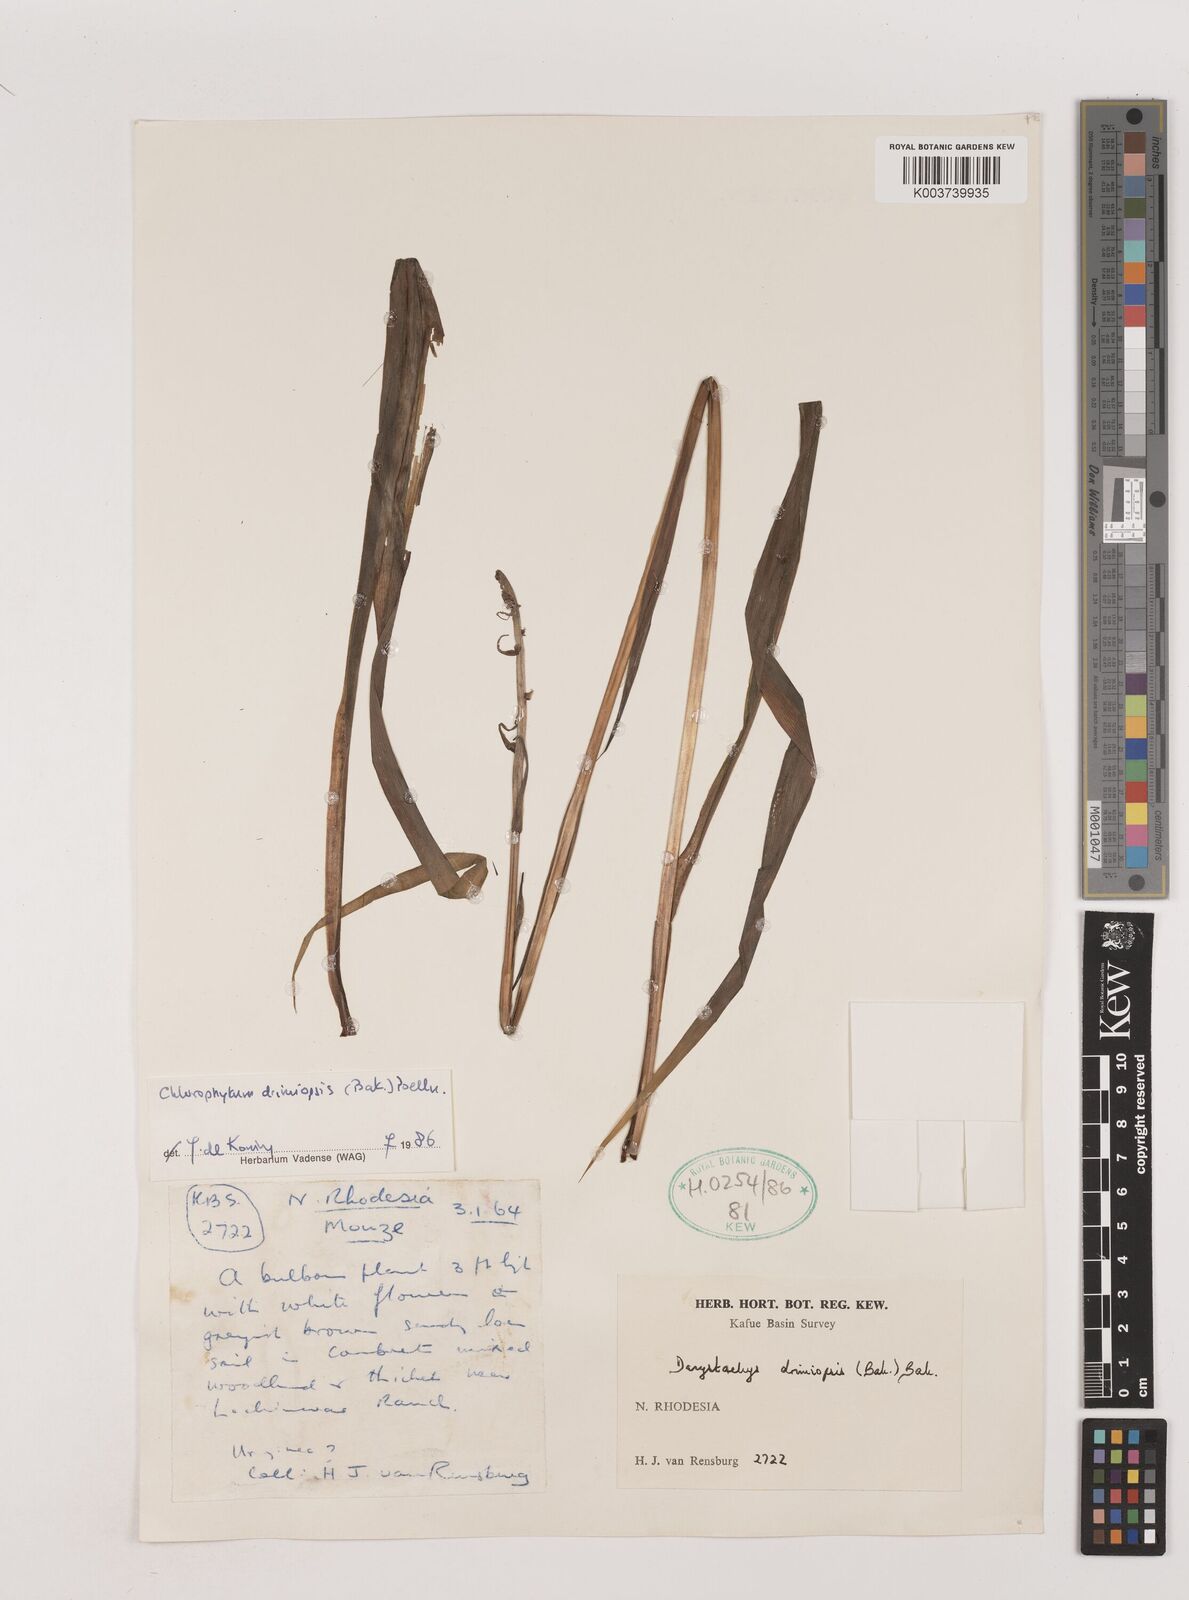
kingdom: Plantae
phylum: Tracheophyta
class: Liliopsida
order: Asparagales
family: Asparagaceae
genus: Chlorophytum
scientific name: Chlorophytum longifolium
